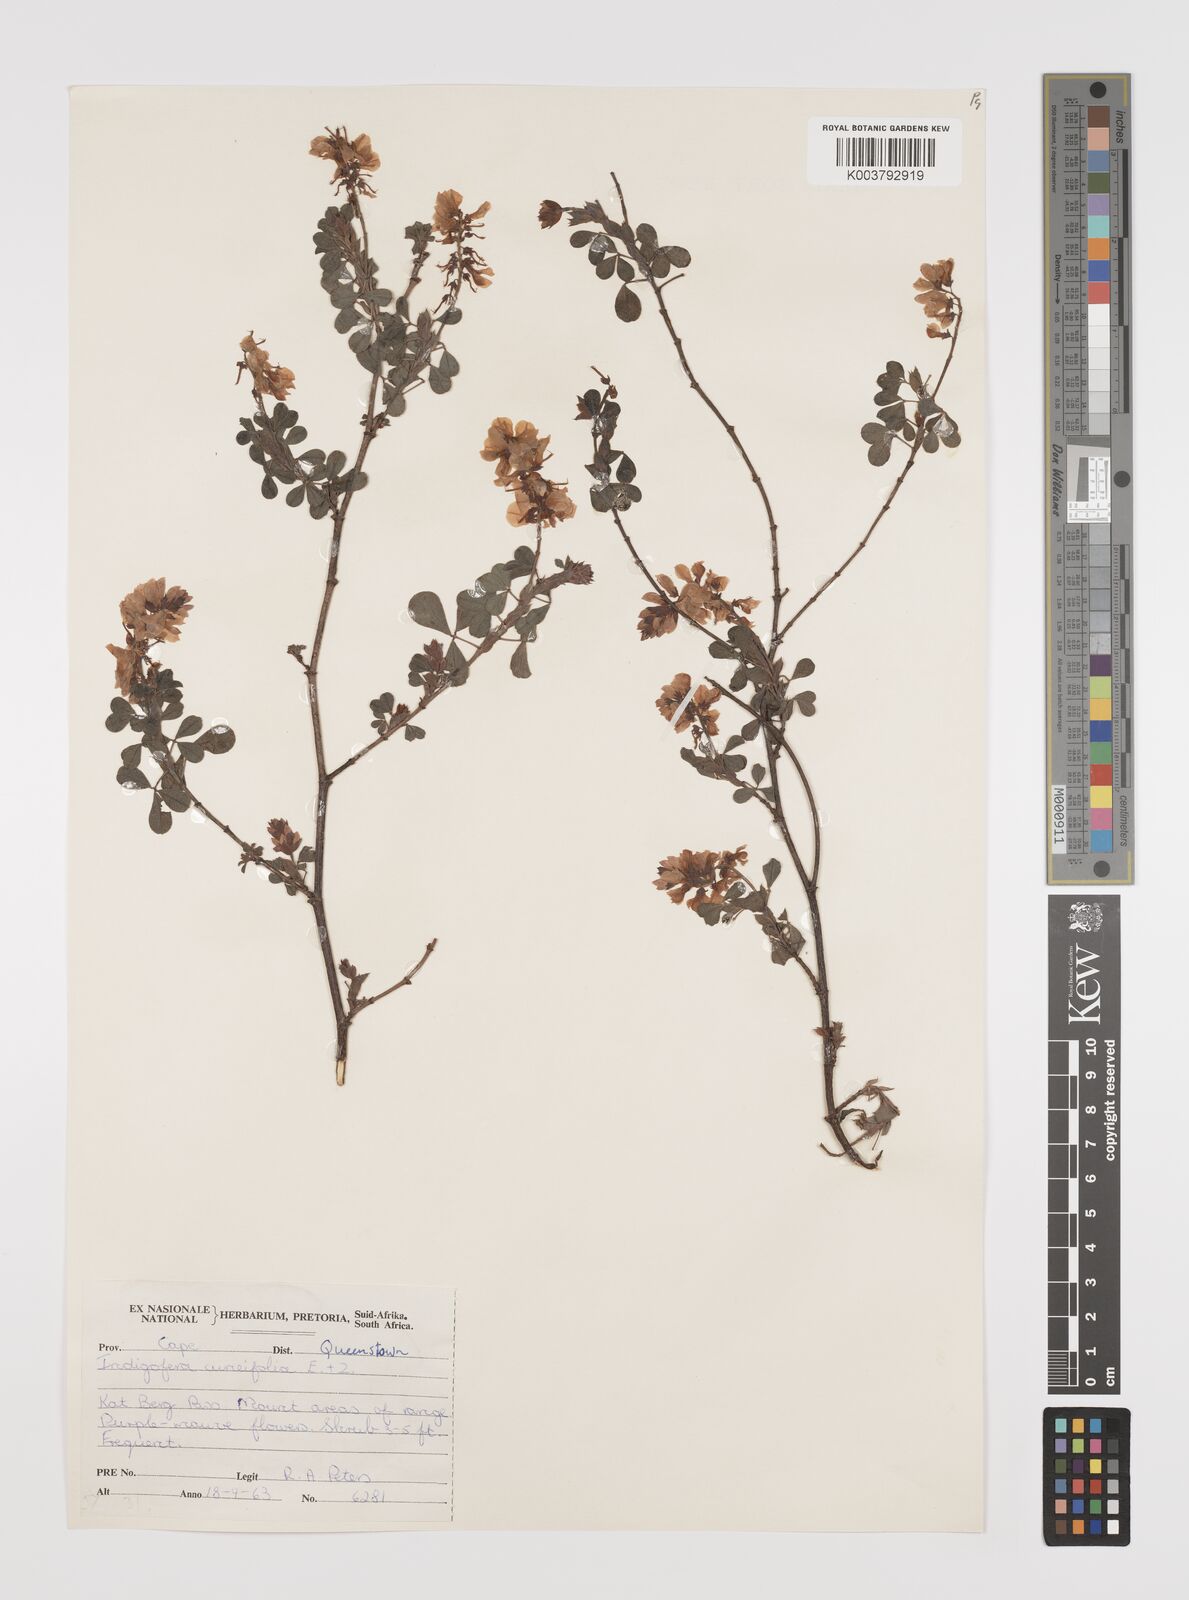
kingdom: Plantae
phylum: Tracheophyta
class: Magnoliopsida
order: Fabales
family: Fabaceae
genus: Indigofera
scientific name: Indigofera cuneifolia
